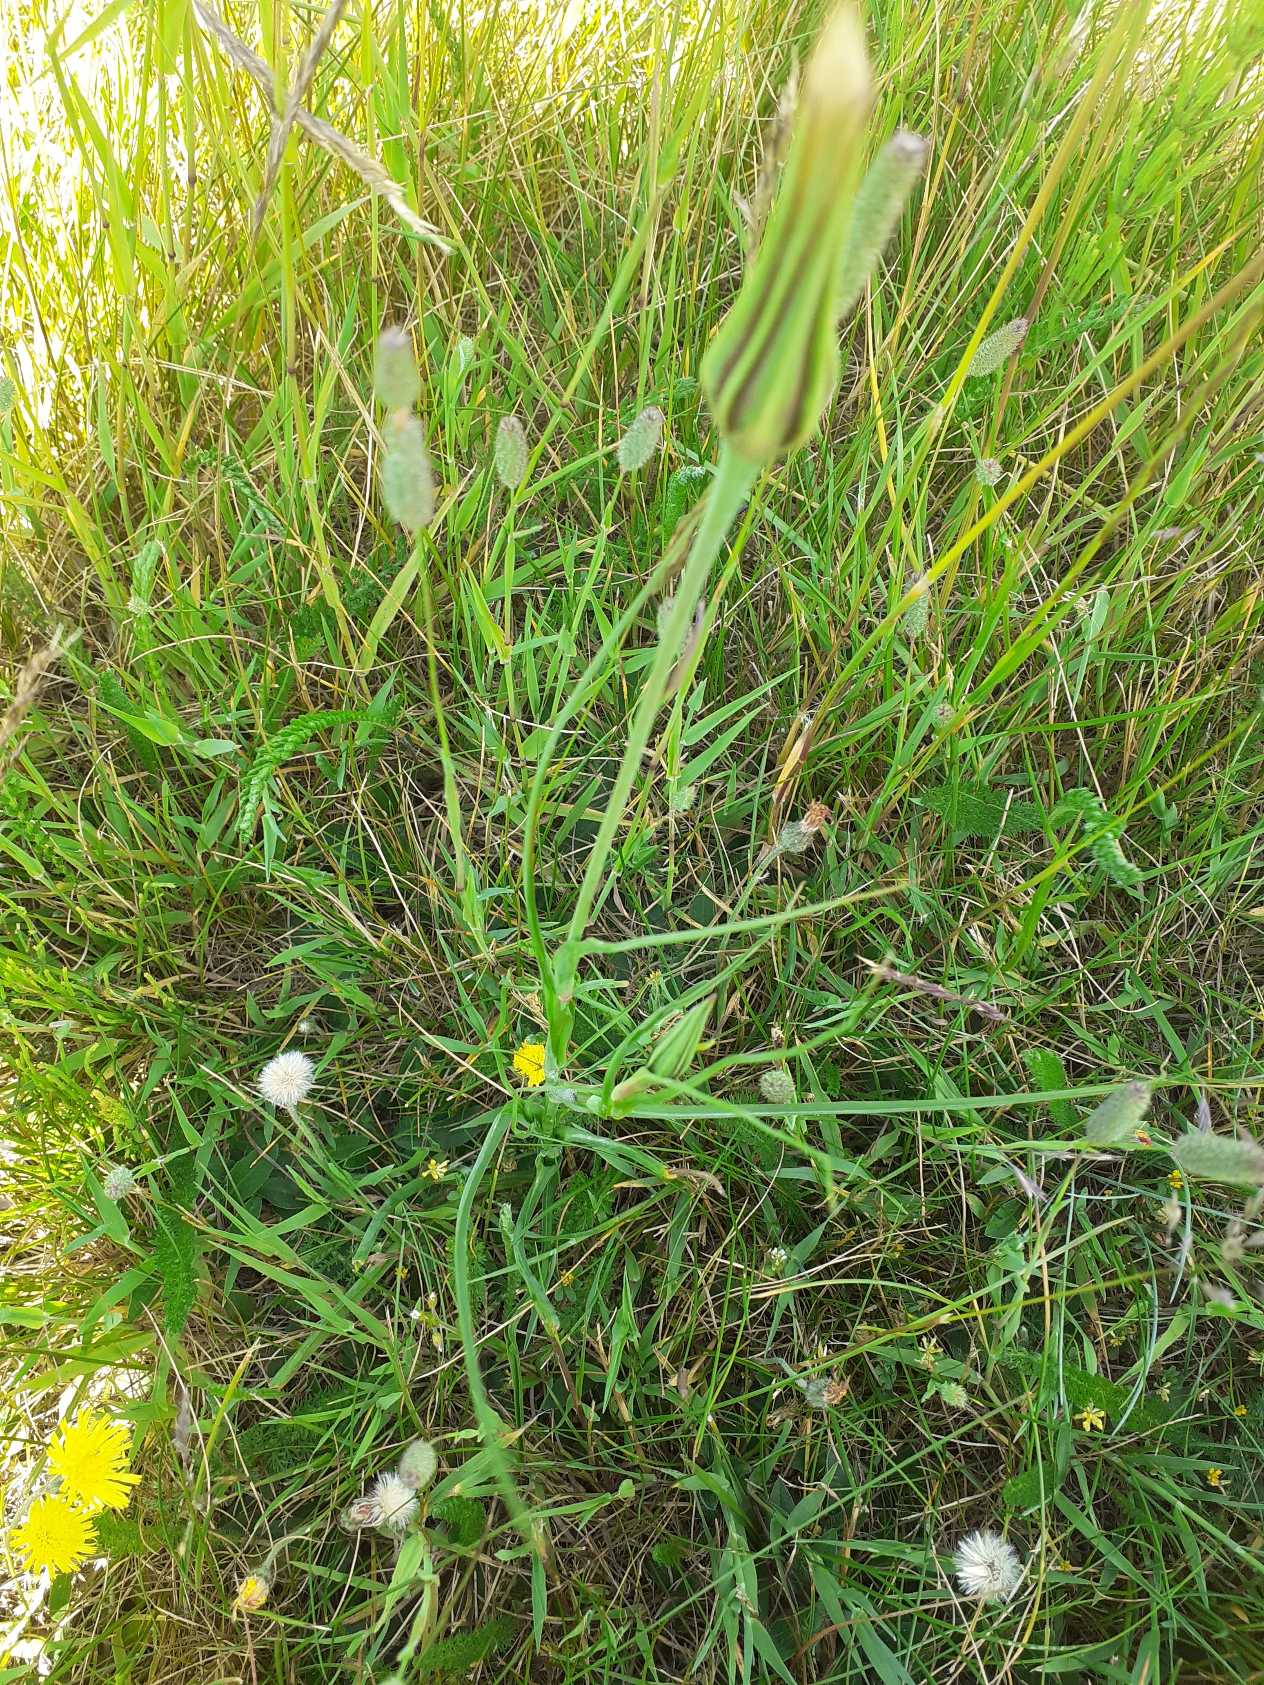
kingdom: Plantae
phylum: Tracheophyta
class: Magnoliopsida
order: Asterales
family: Asteraceae
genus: Tragopogon
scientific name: Tragopogon pratensis
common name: Gedeskæg
